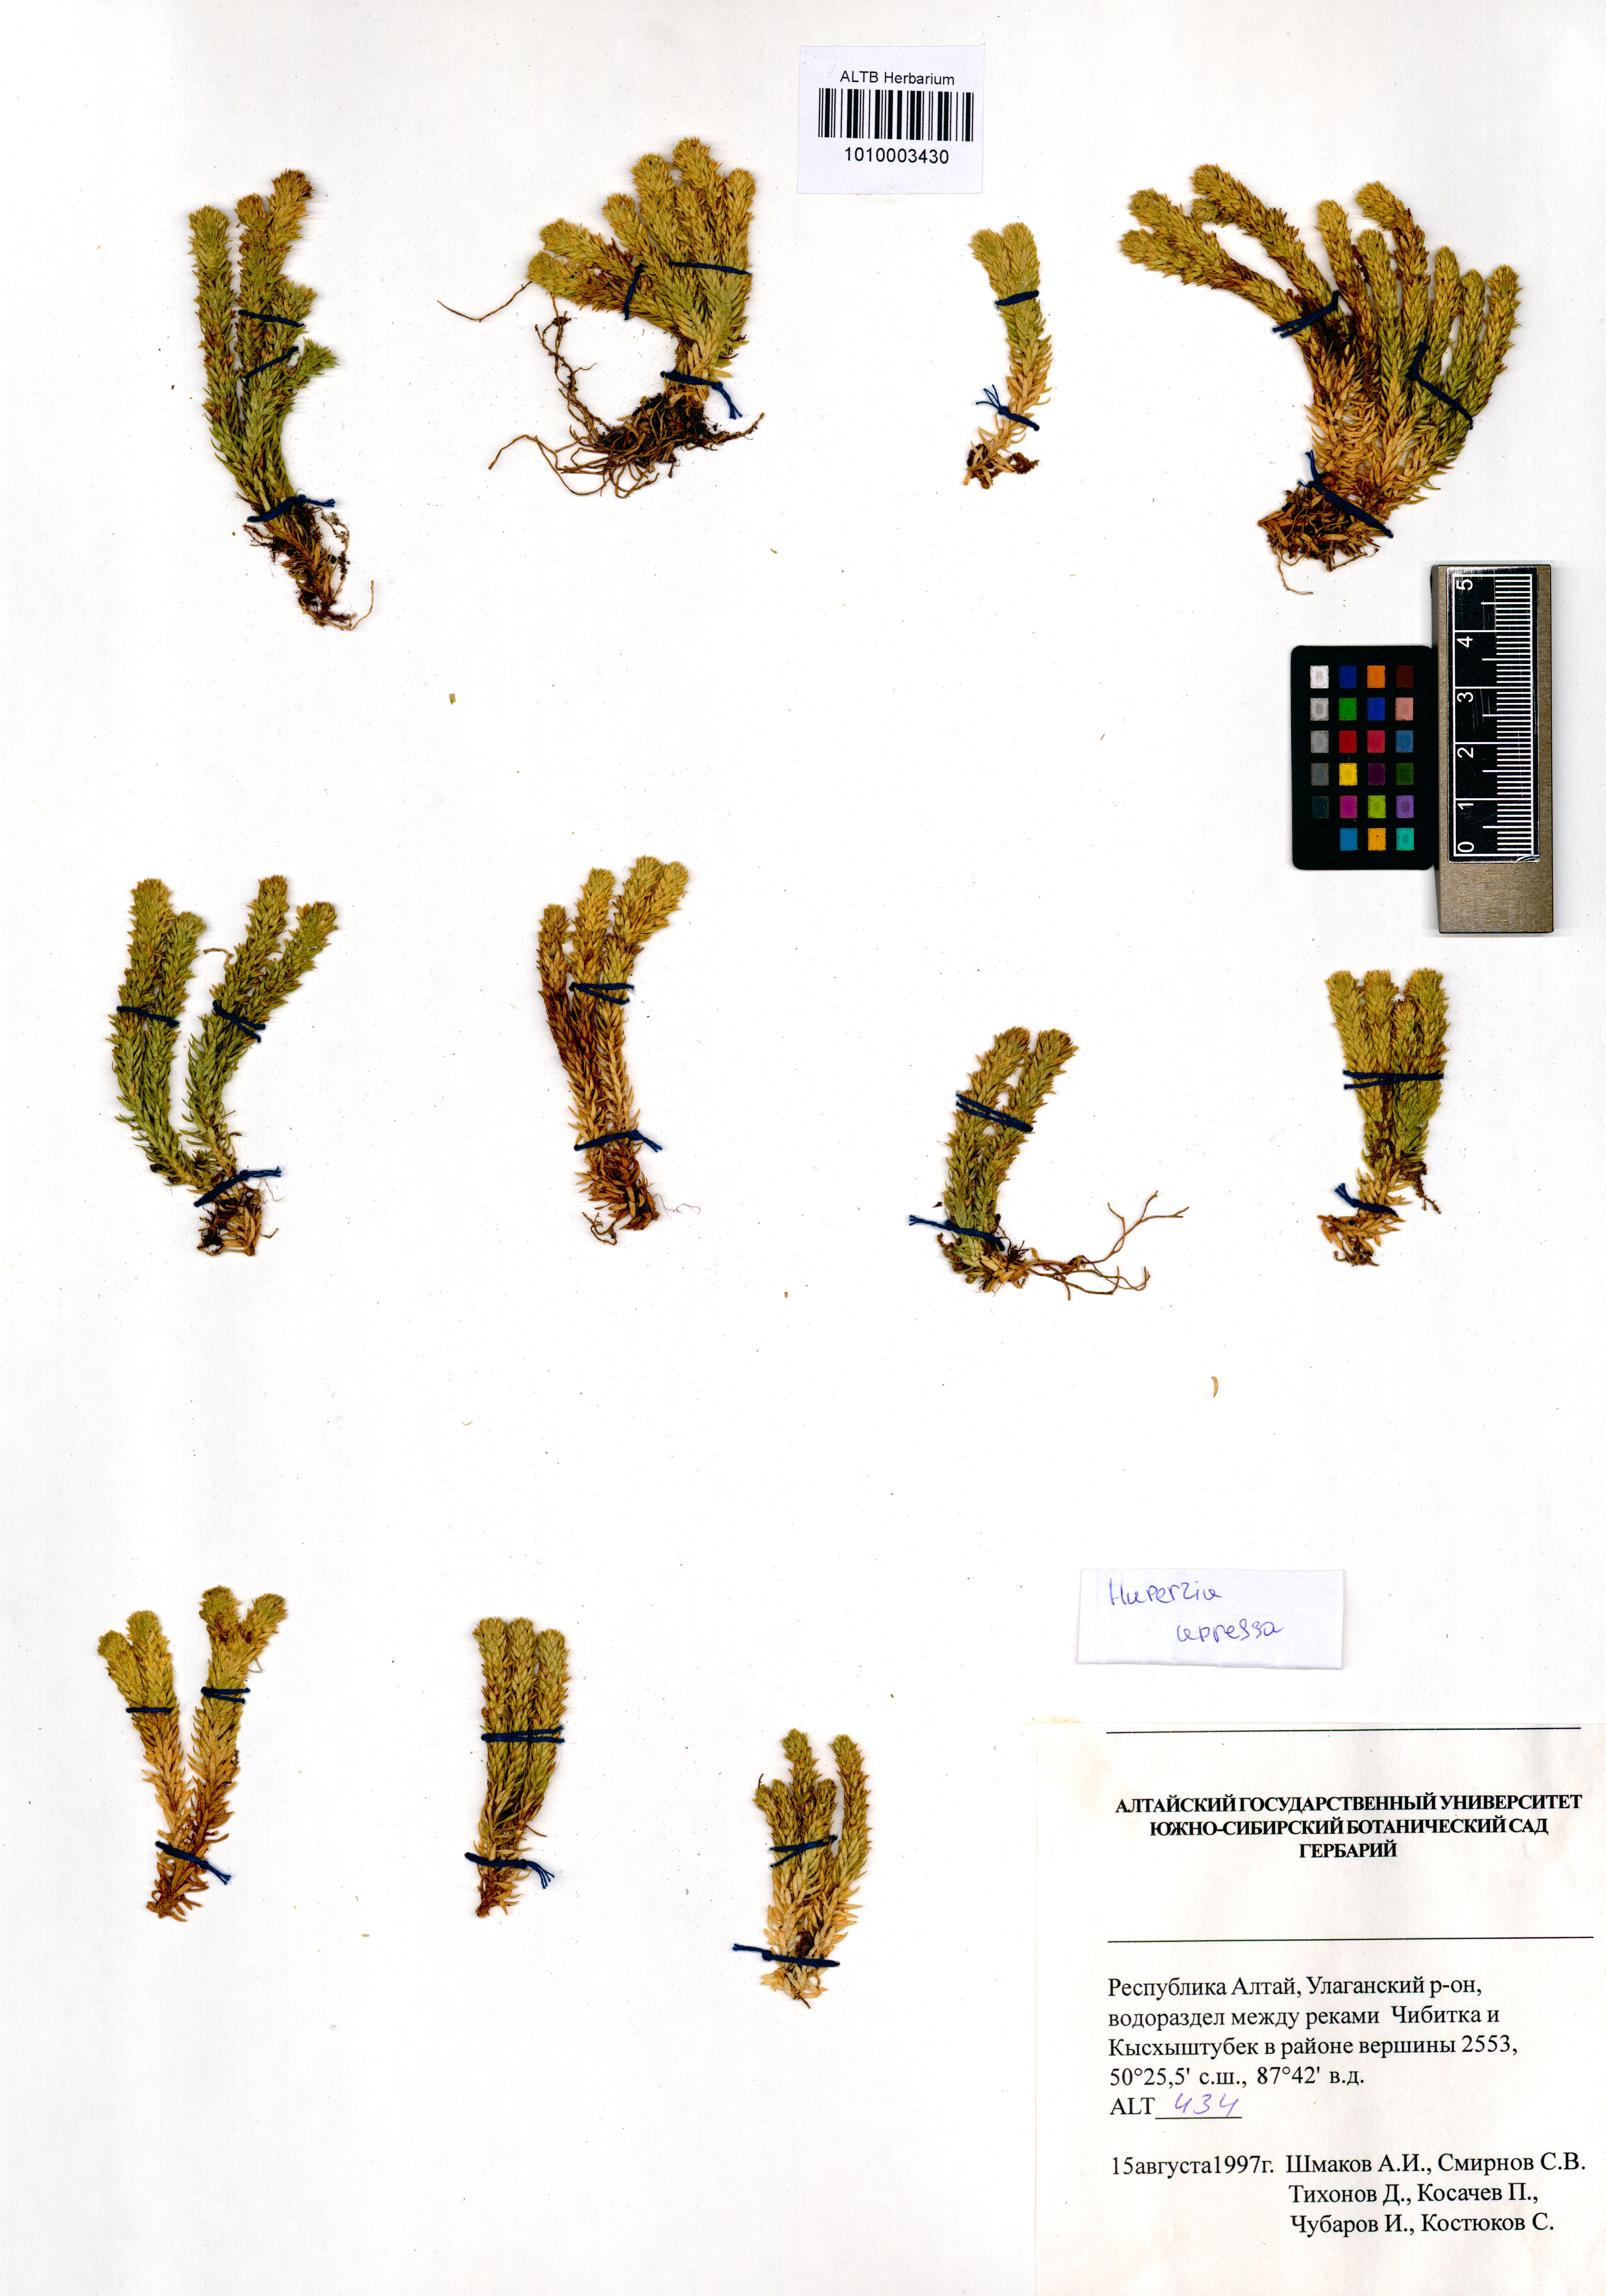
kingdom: Plantae
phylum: Tracheophyta
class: Lycopodiopsida
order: Lycopodiales
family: Lycopodiaceae
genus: Huperzia
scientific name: Huperzia selago
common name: Northern firmoss
